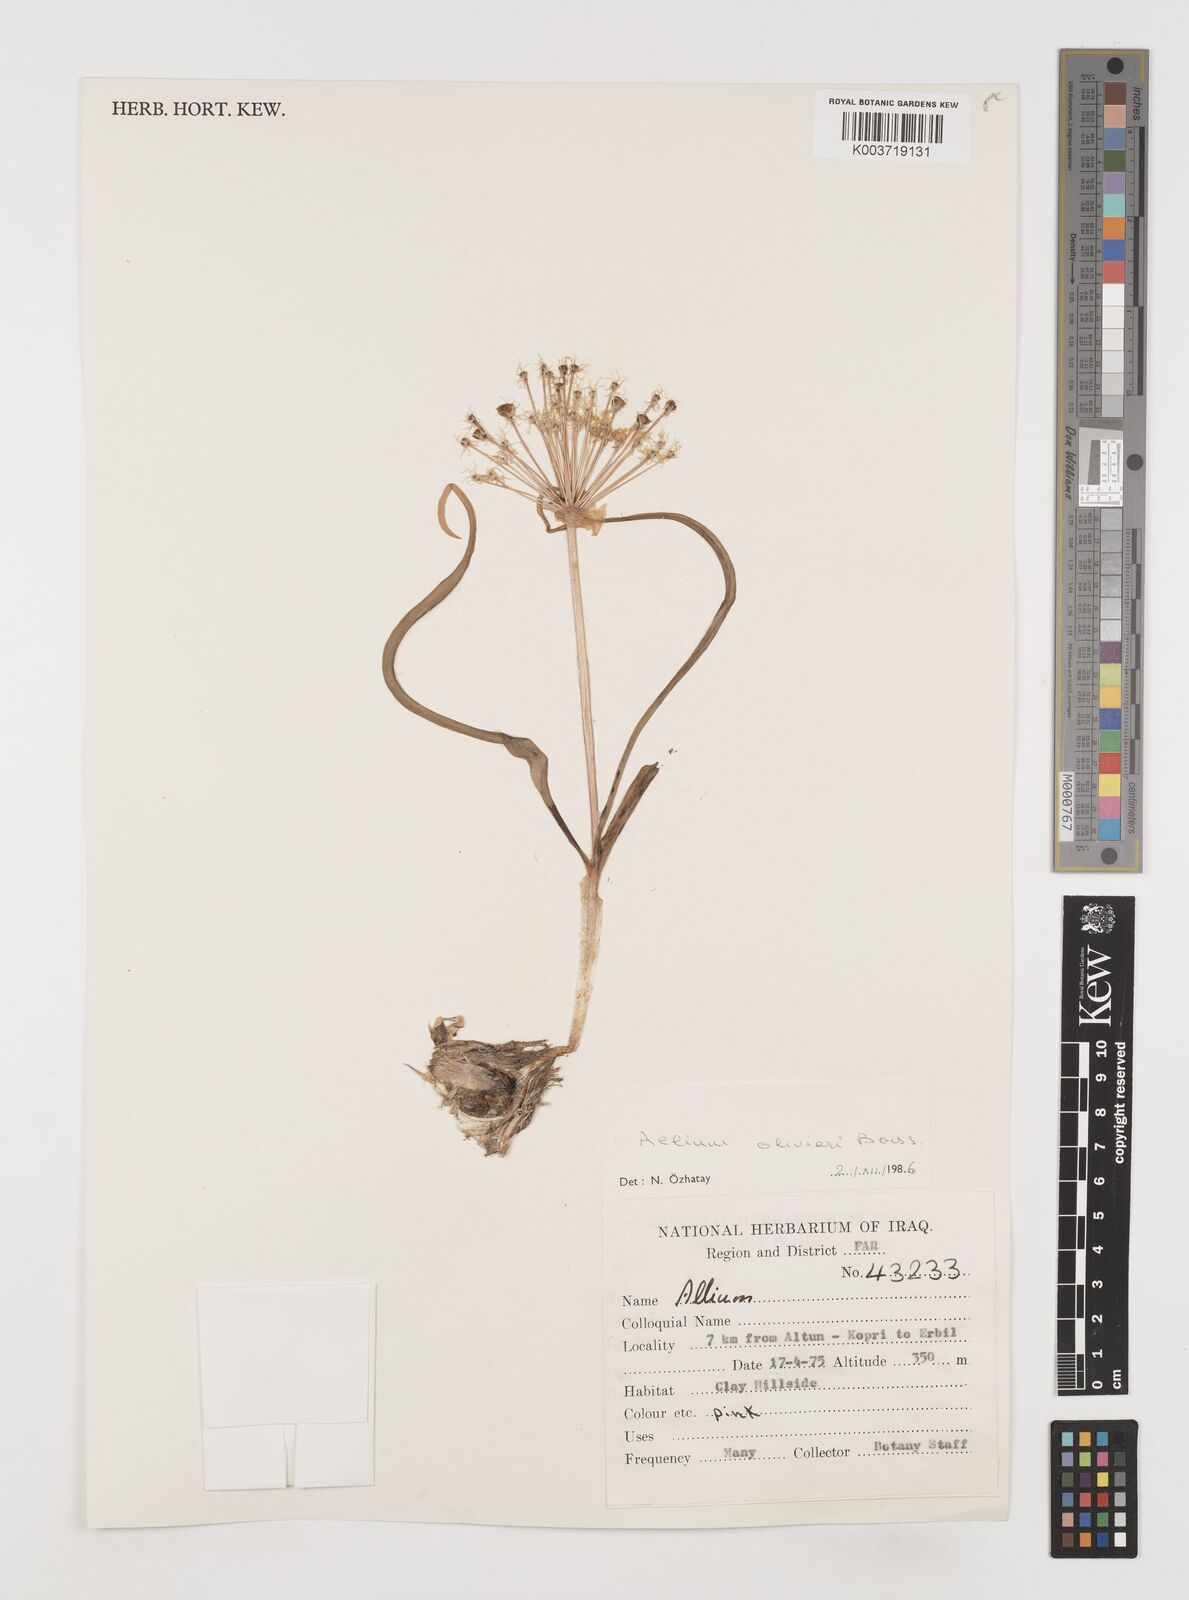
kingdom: Plantae
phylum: Tracheophyta
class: Liliopsida
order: Asparagales
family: Amaryllidaceae
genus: Allium
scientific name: Allium olivieri
